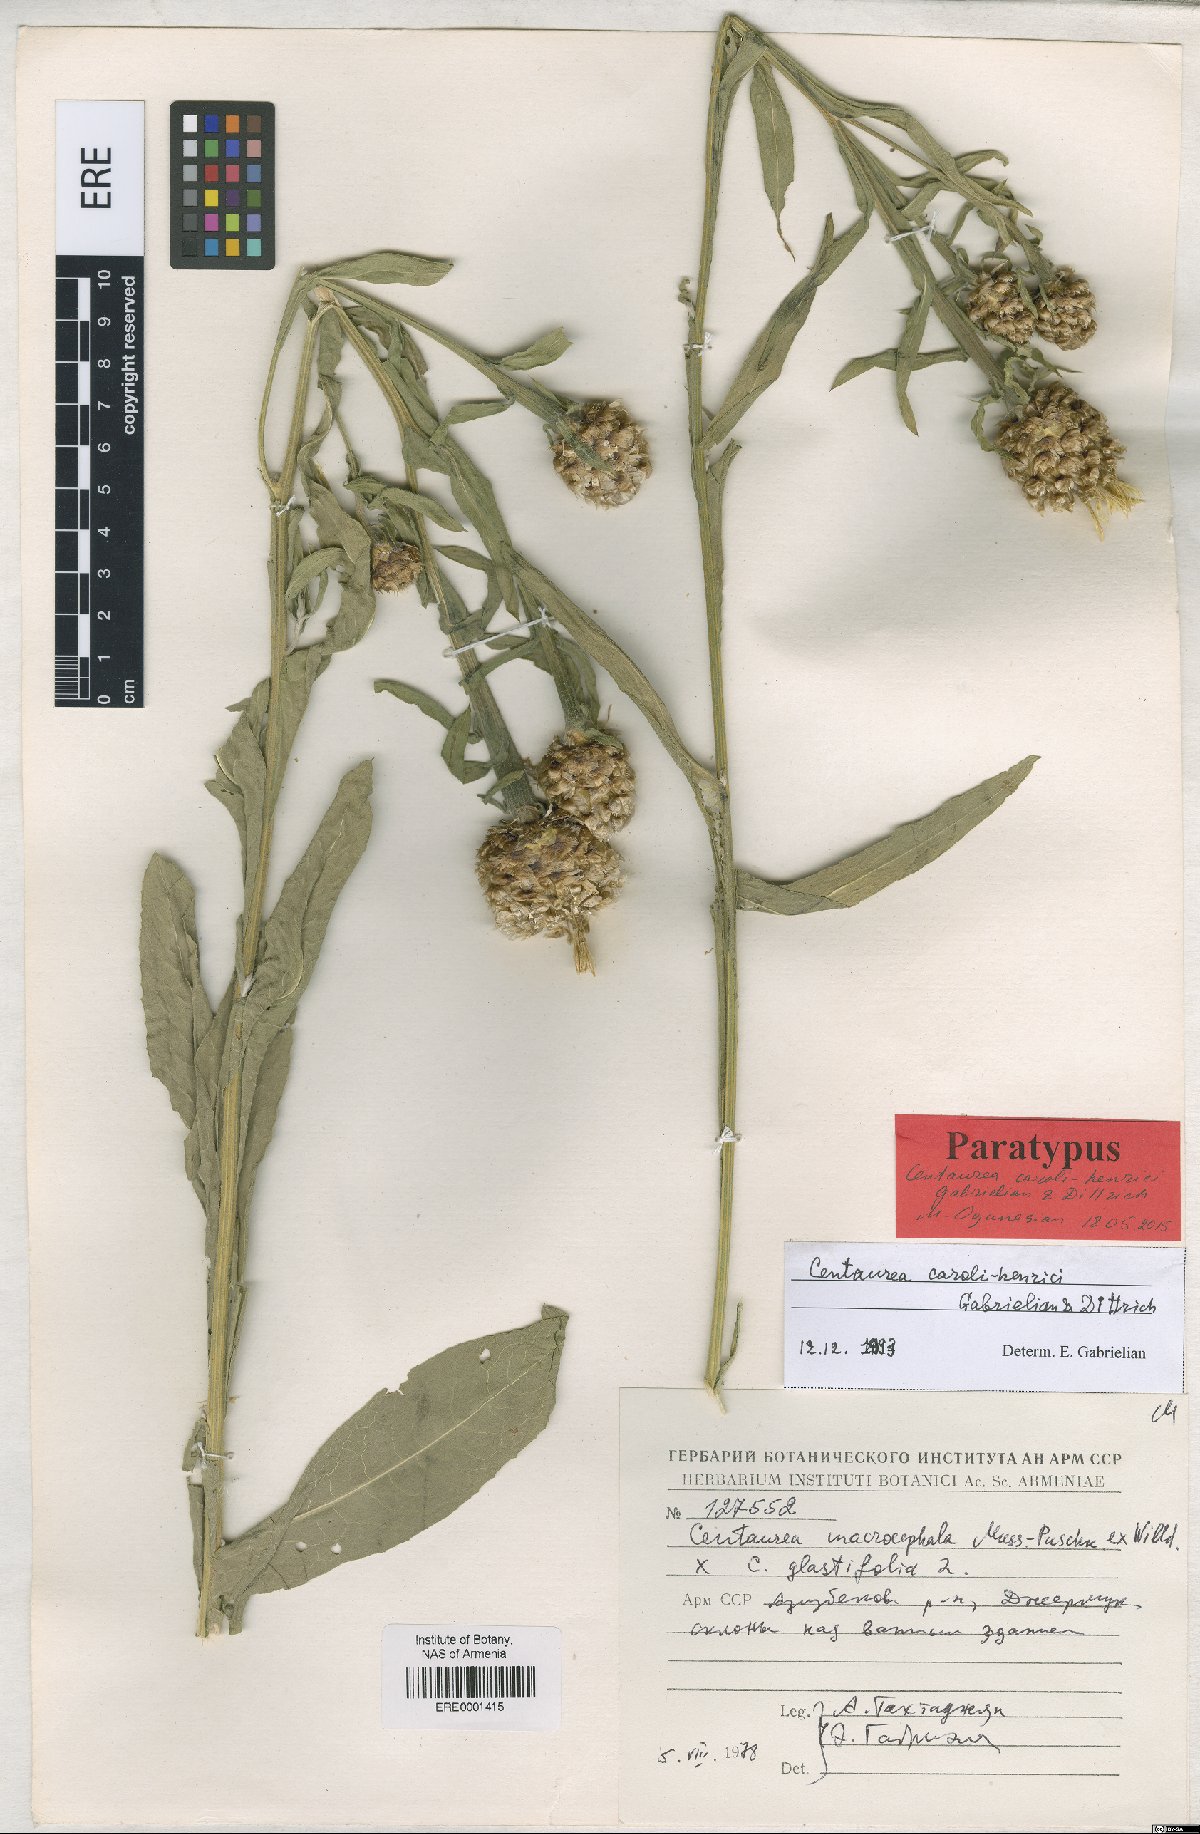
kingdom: Plantae
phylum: Tracheophyta
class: Magnoliopsida
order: Asterales
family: Asteraceae
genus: Centaurea
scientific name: Centaurea caroli-henrici
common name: Karl-henrikh's centaury
